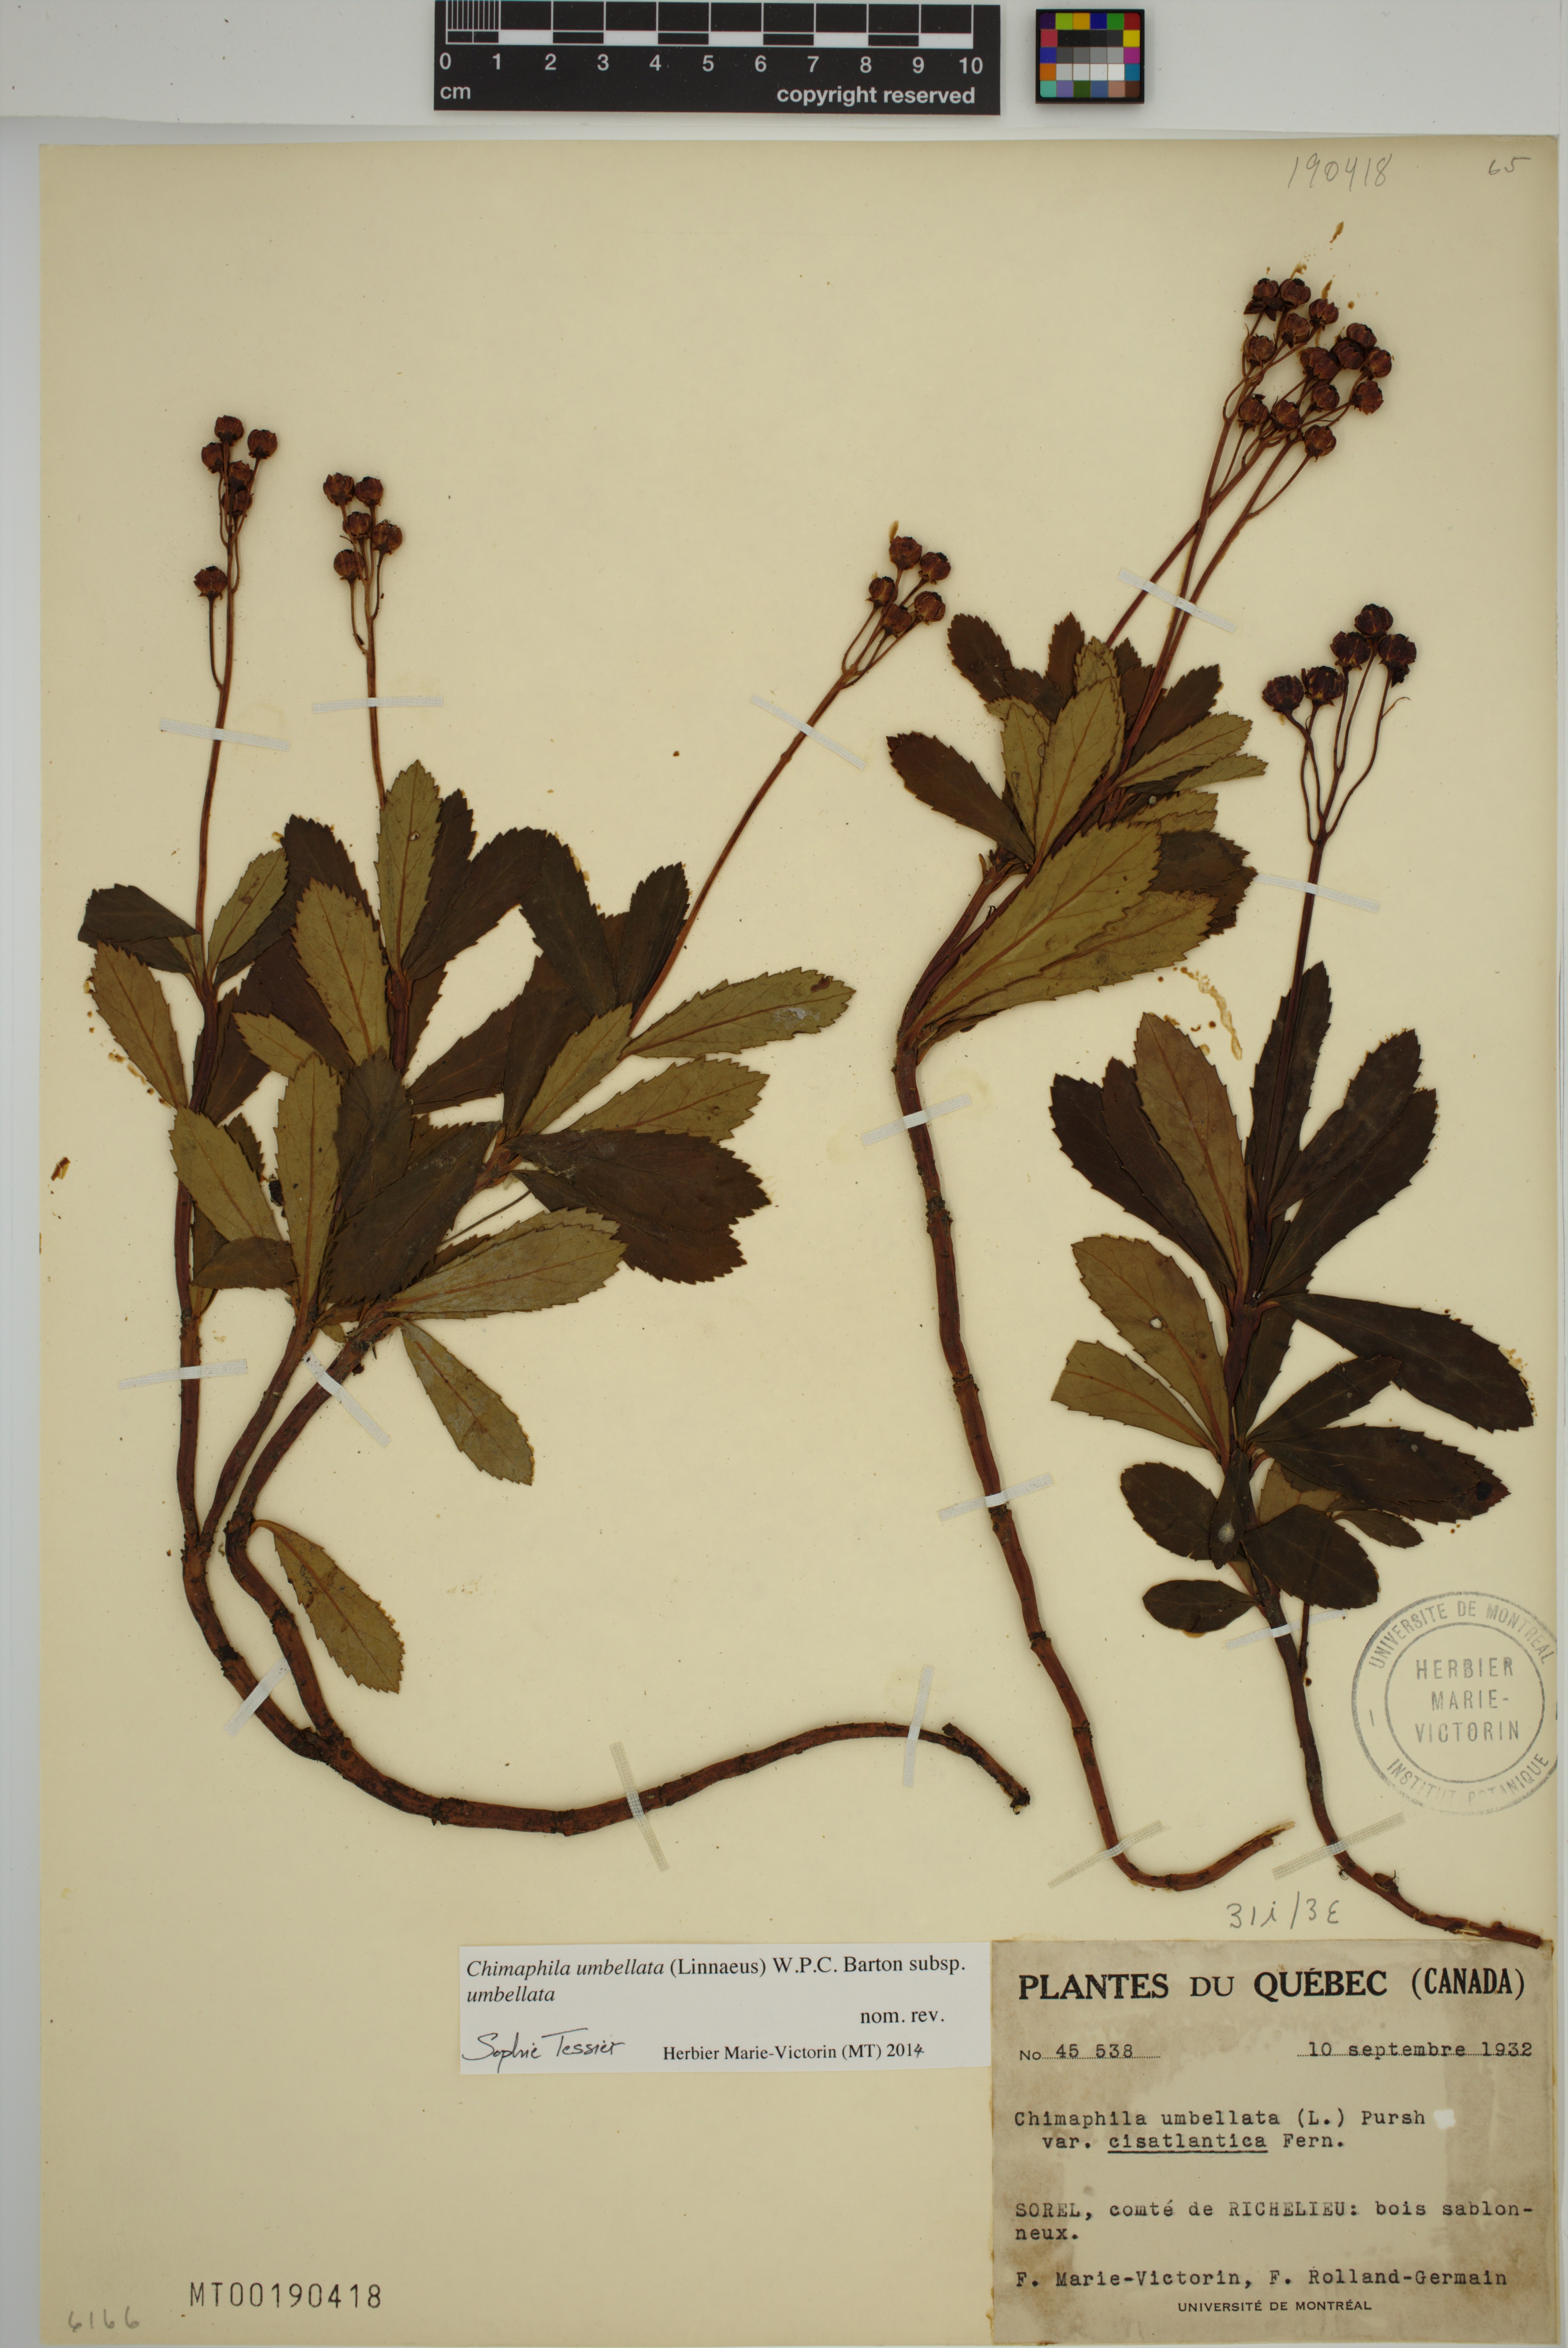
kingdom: Plantae
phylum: Tracheophyta
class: Magnoliopsida
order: Ericales
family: Ericaceae
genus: Chimaphila
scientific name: Chimaphila umbellata
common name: Pipsissewa
